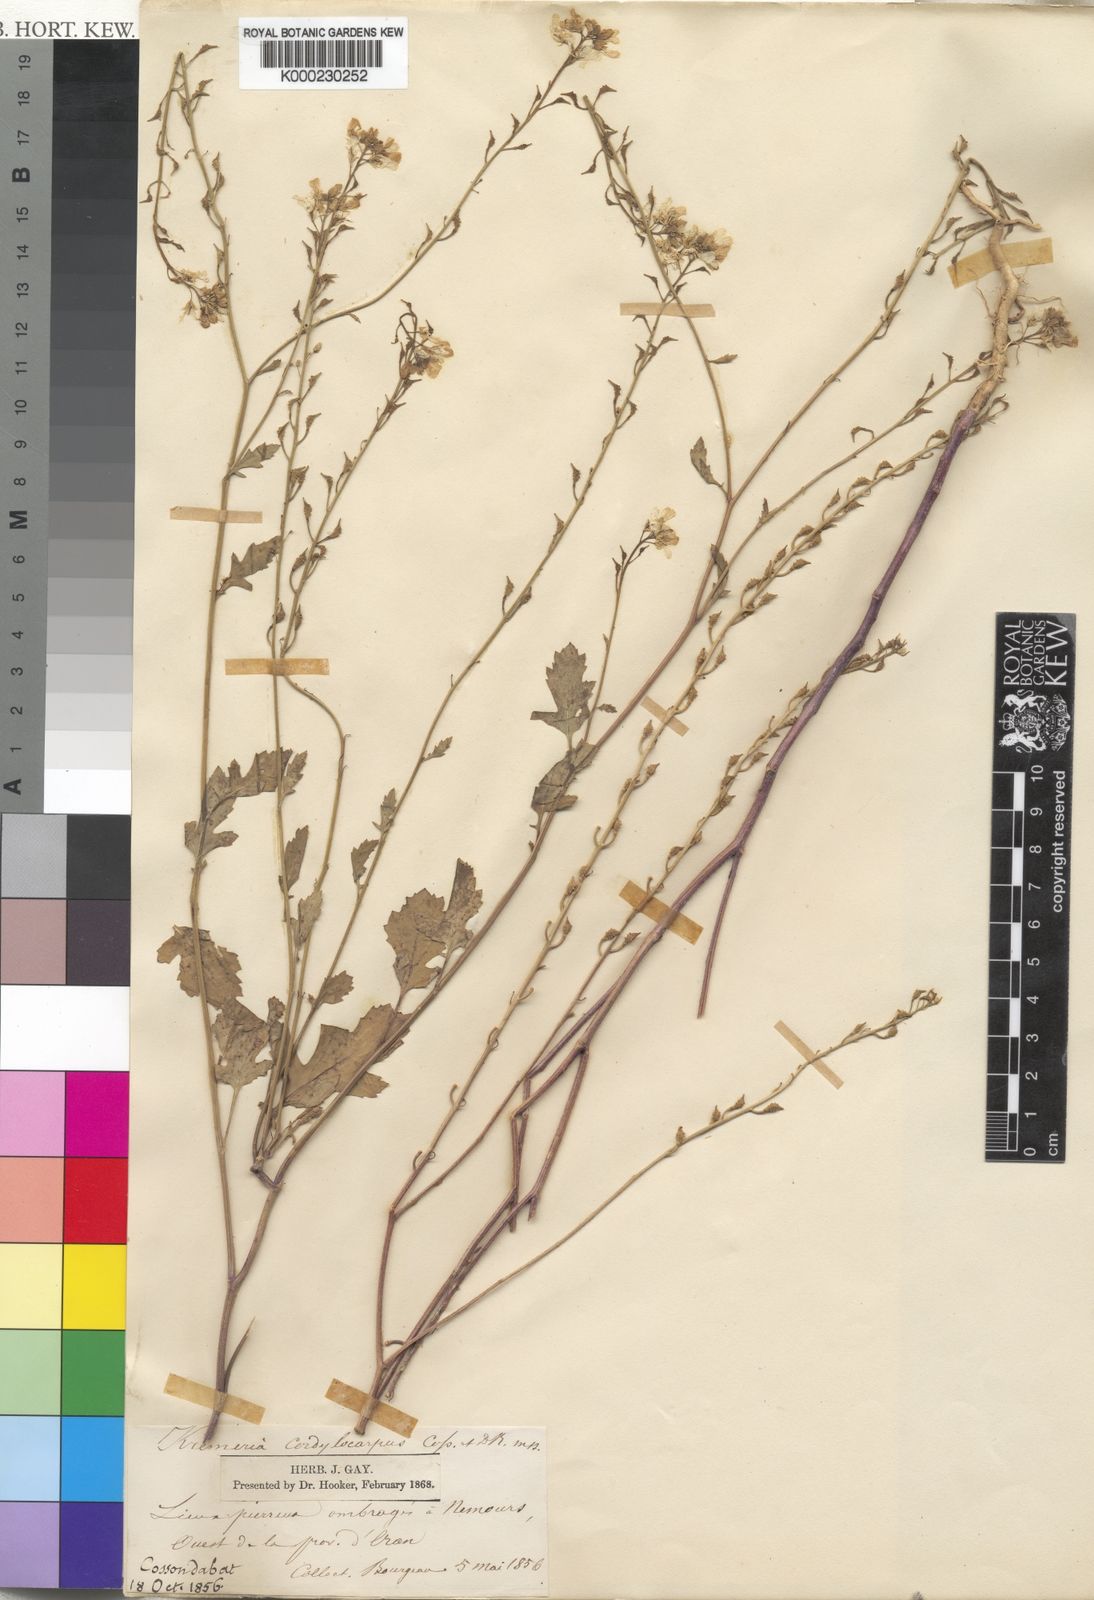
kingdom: Plantae
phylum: Tracheophyta
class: Magnoliopsida
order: Brassicales
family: Brassicaceae
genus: Kremeriella
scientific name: Kremeriella cordylocarpus
